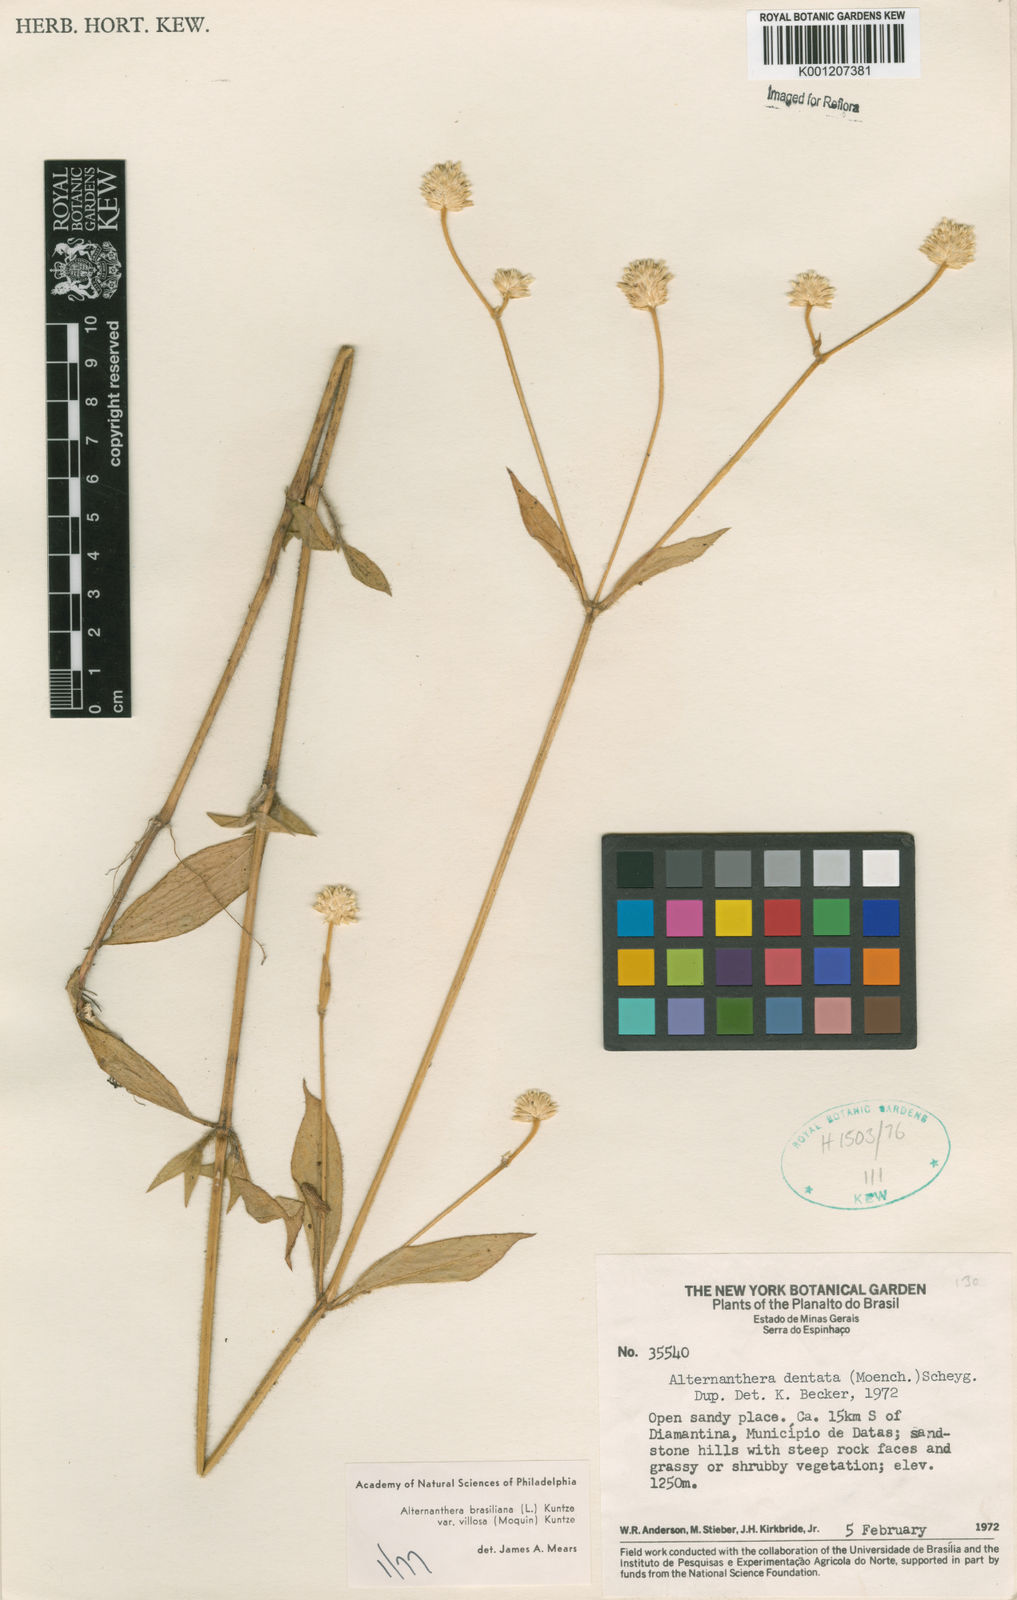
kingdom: Plantae
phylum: Tracheophyta
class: Magnoliopsida
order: Caryophyllales
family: Amaranthaceae
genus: Alternanthera
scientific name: Alternanthera ramosissima
